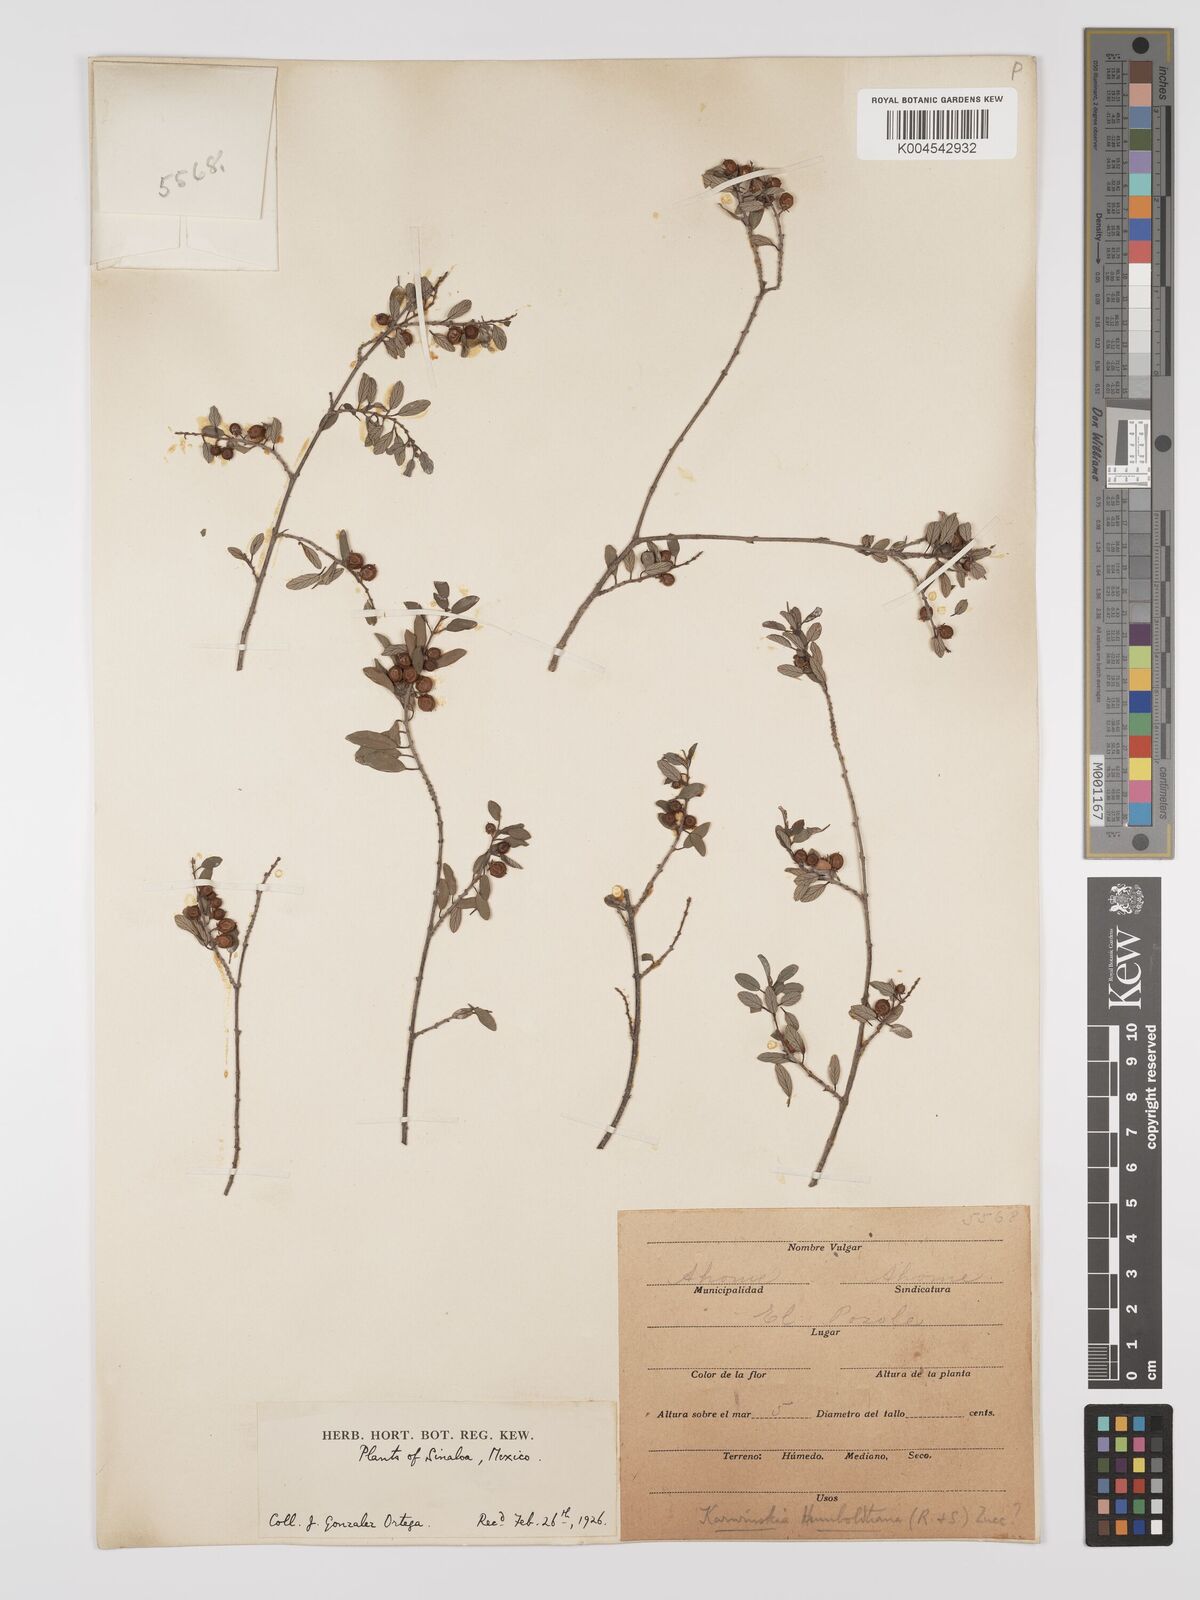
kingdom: Plantae
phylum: Tracheophyta
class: Magnoliopsida
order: Rosales
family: Rhamnaceae
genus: Karwinskia
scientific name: Karwinskia parvifolia
